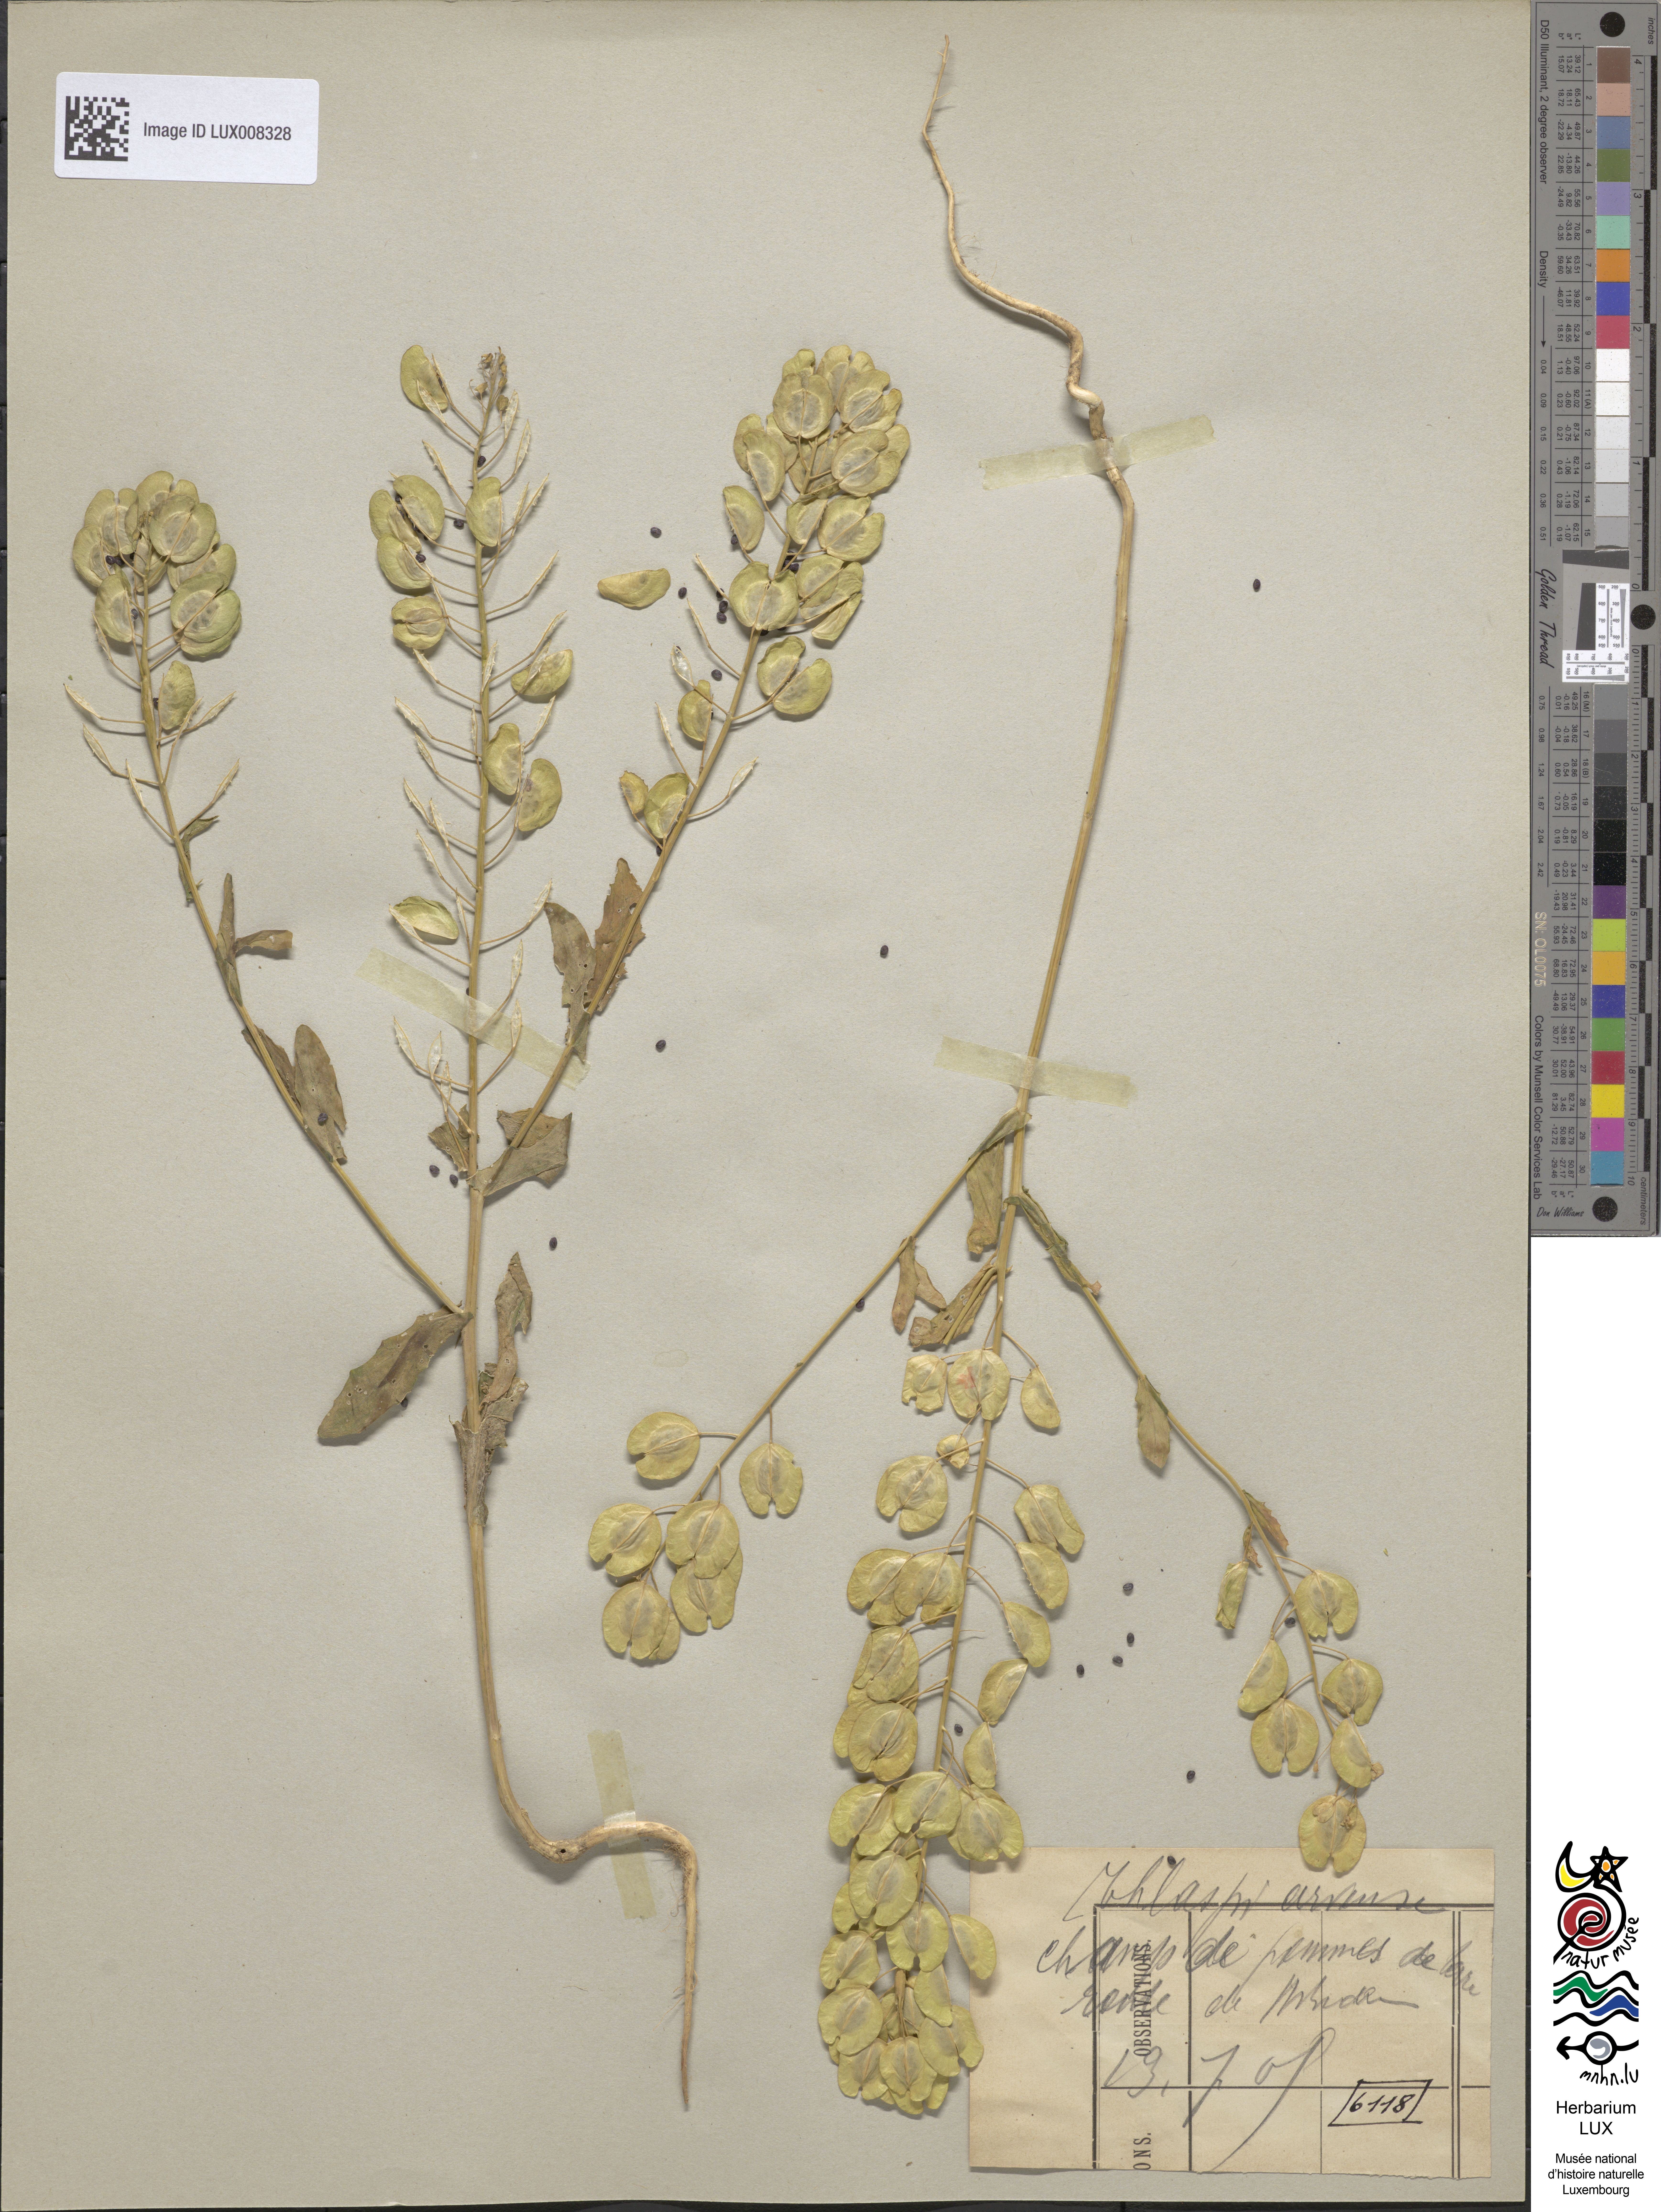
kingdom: Plantae
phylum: Tracheophyta
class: Magnoliopsida
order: Brassicales
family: Brassicaceae
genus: Thlaspi
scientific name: Thlaspi arvense
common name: Field pennycress
